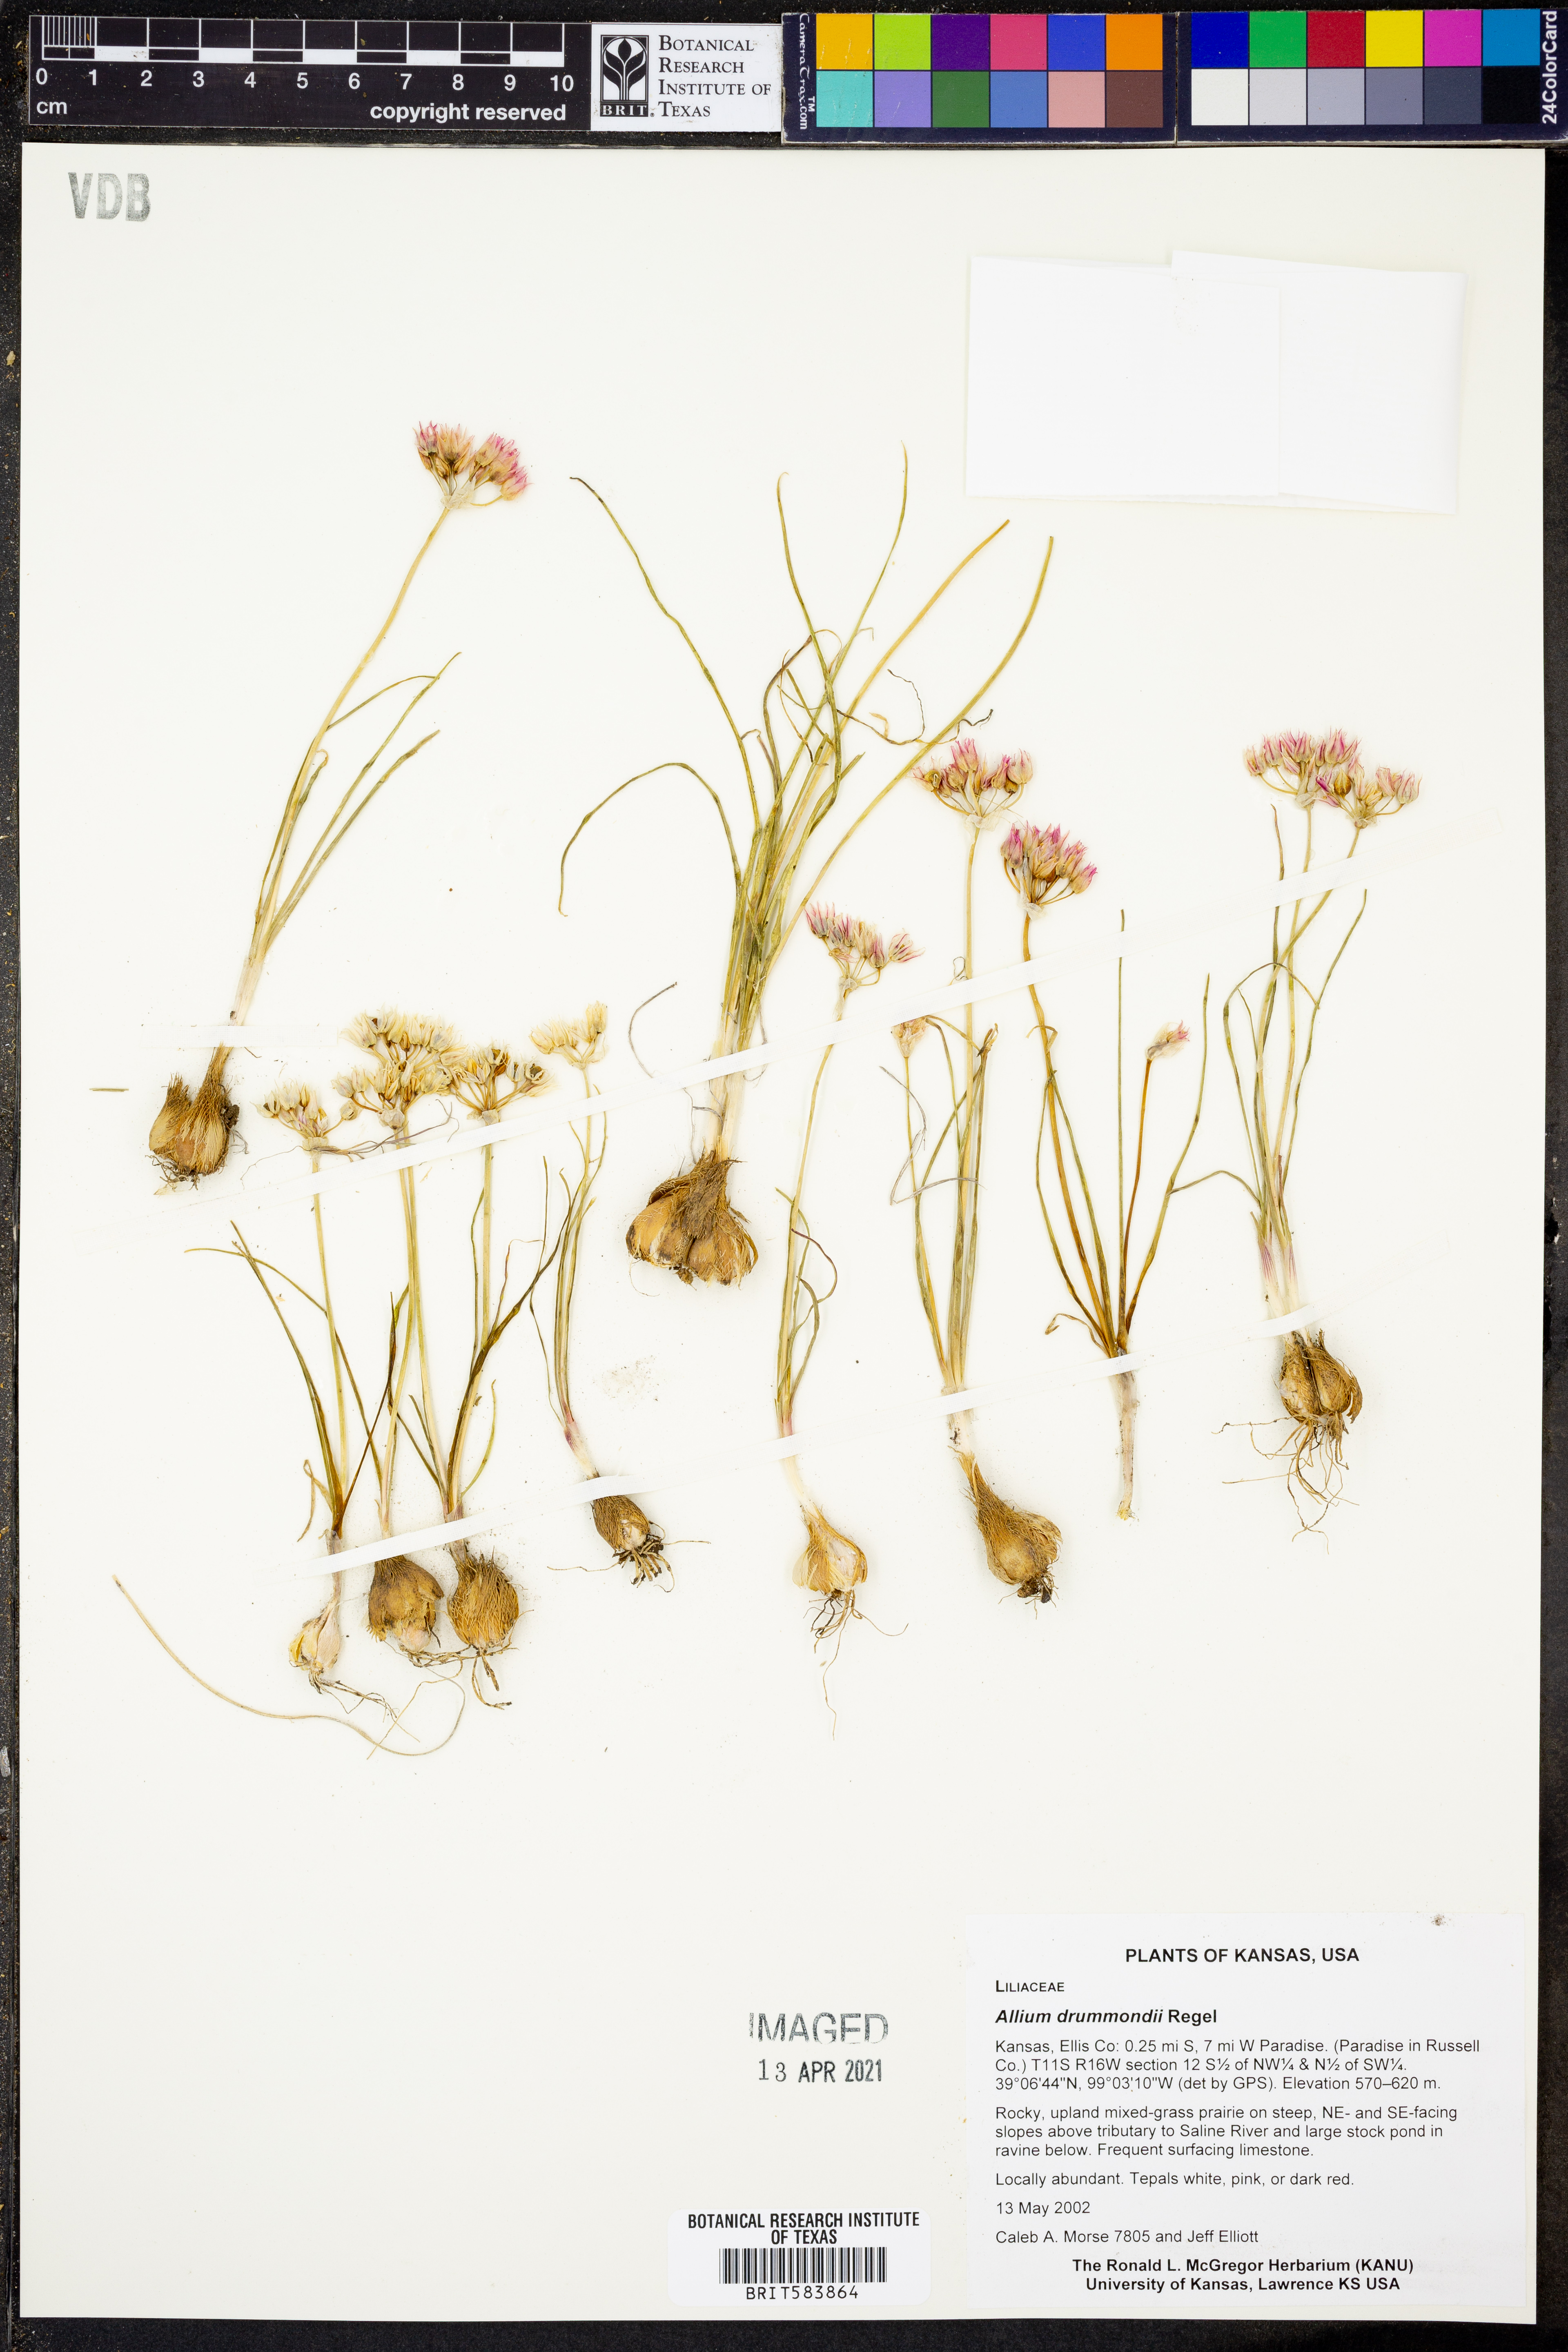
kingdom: Plantae
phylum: Tracheophyta
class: Liliopsida
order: Asparagales
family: Amaryllidaceae
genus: Allium
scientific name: Allium drummondii
